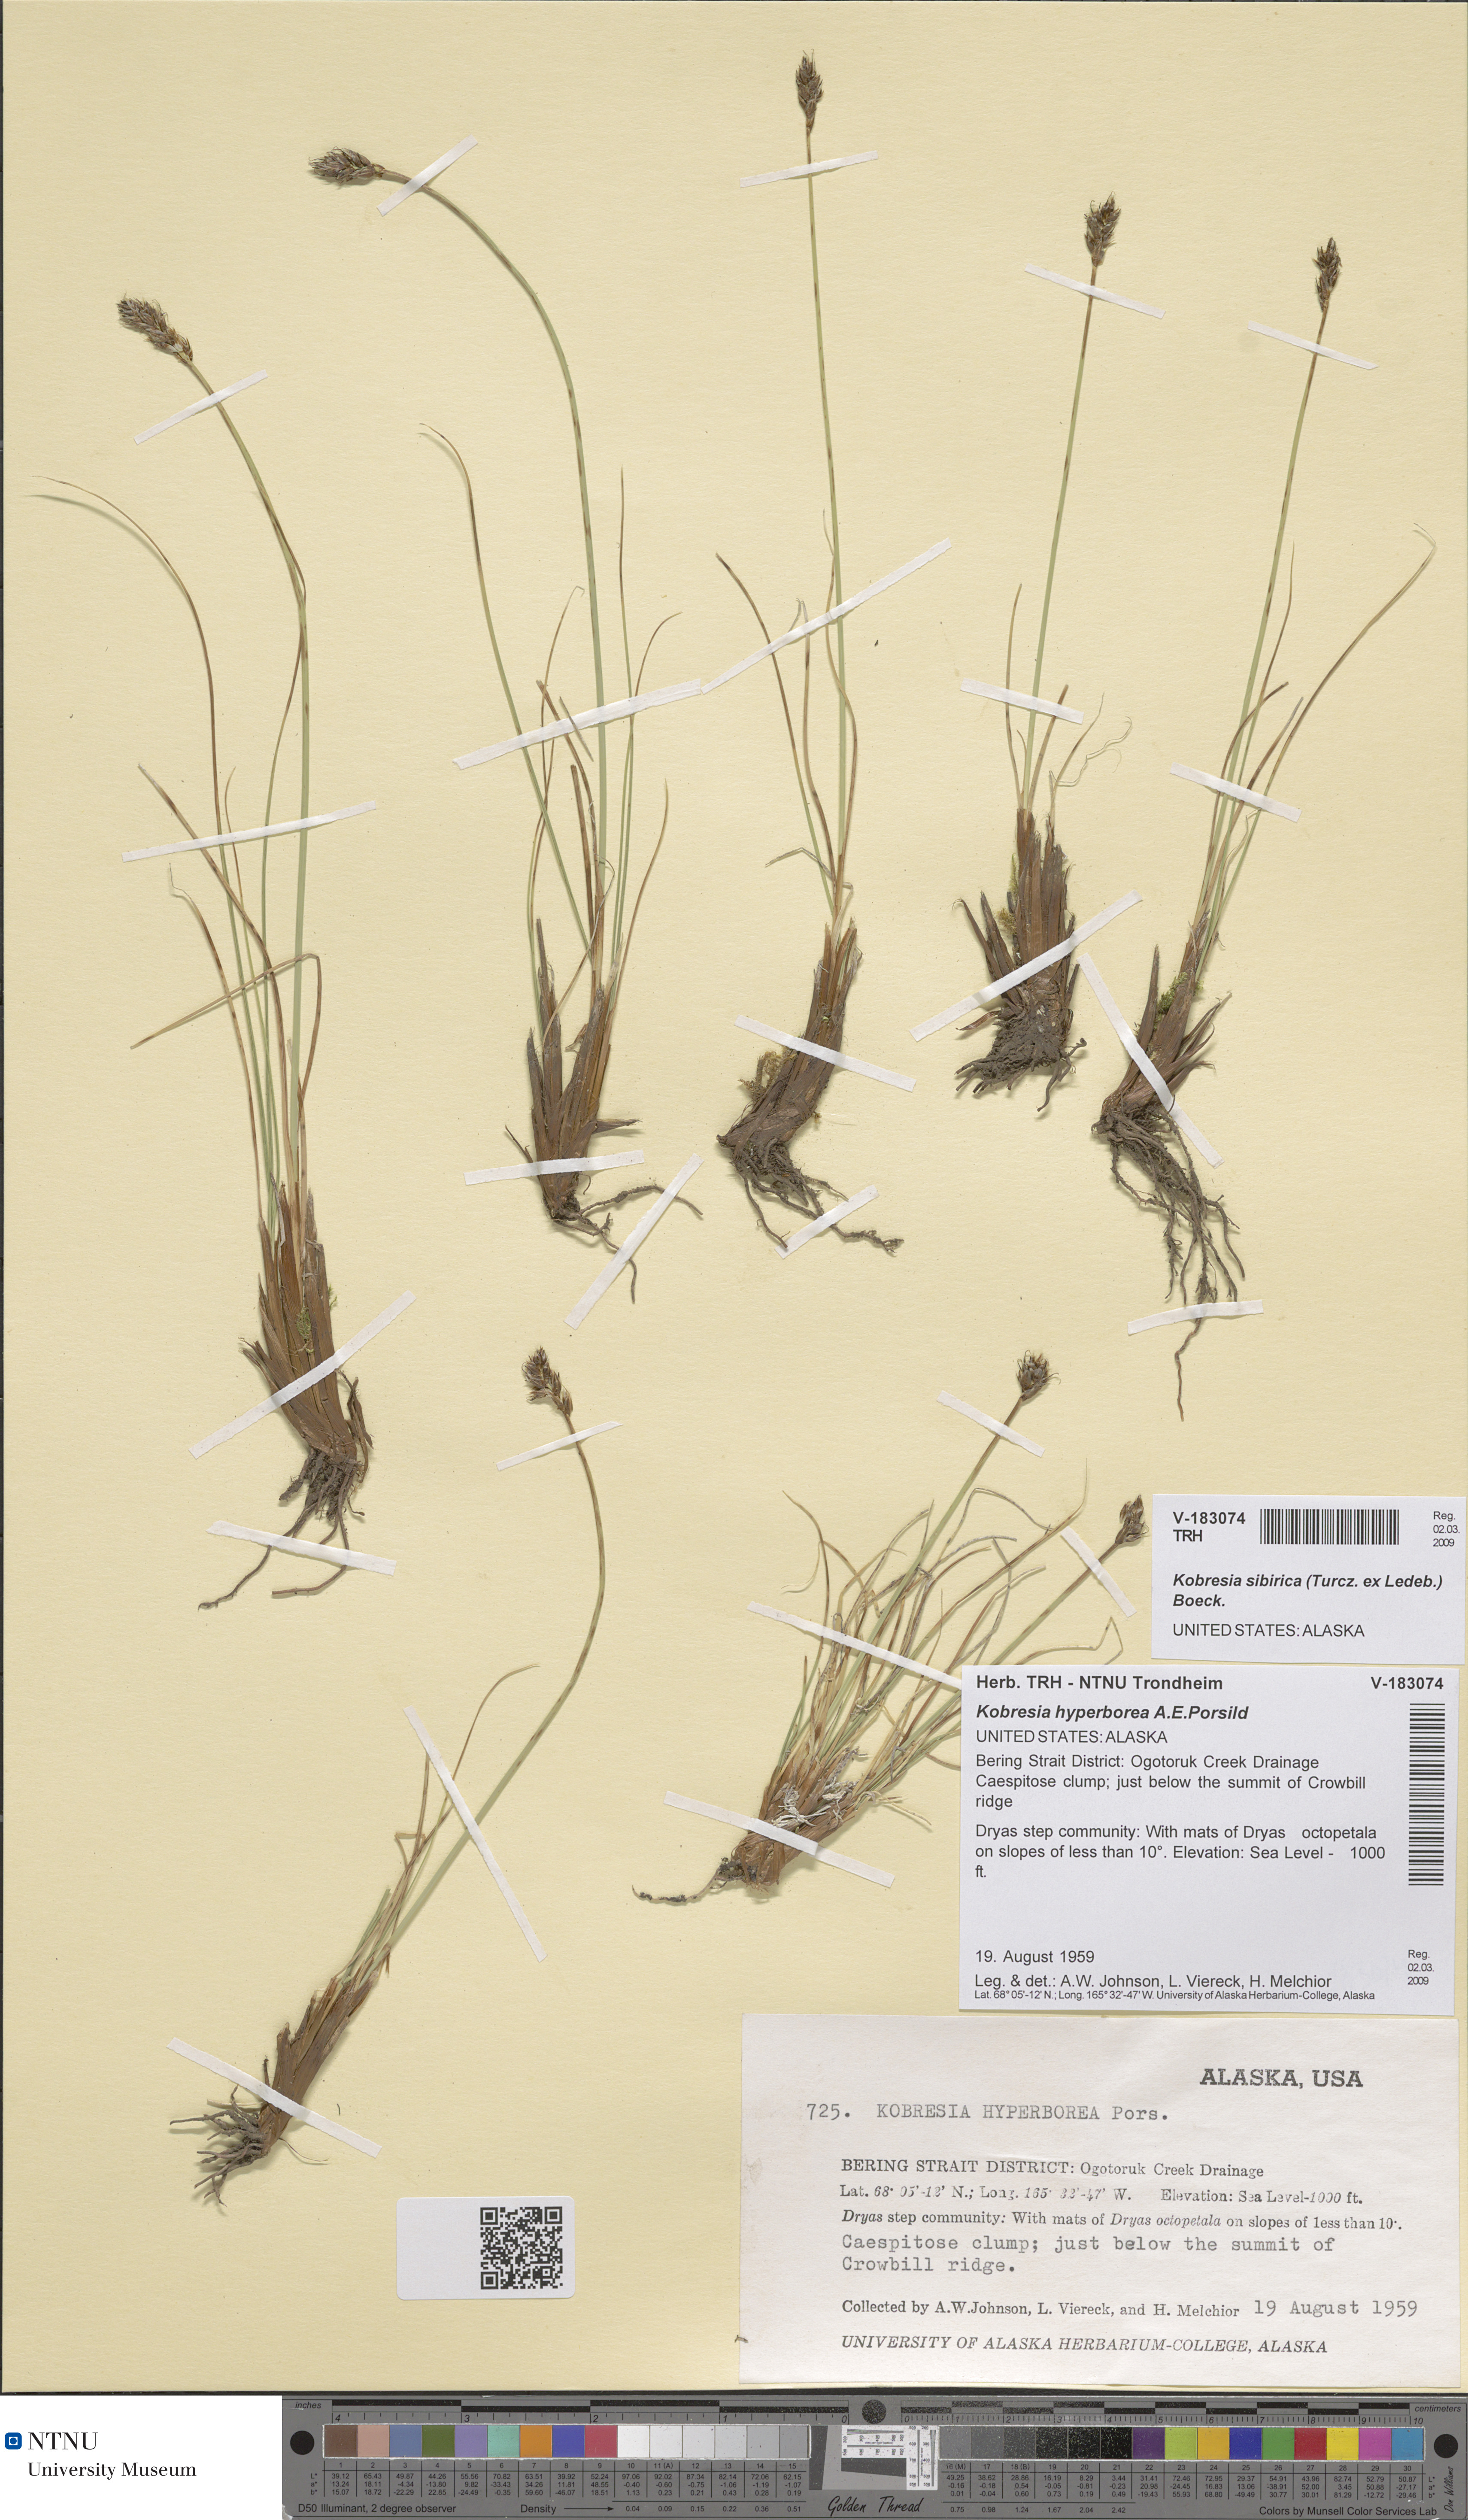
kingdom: Plantae
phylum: Tracheophyta
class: Liliopsida
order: Poales
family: Cyperaceae
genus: Carex
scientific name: Carex macroprophylla
